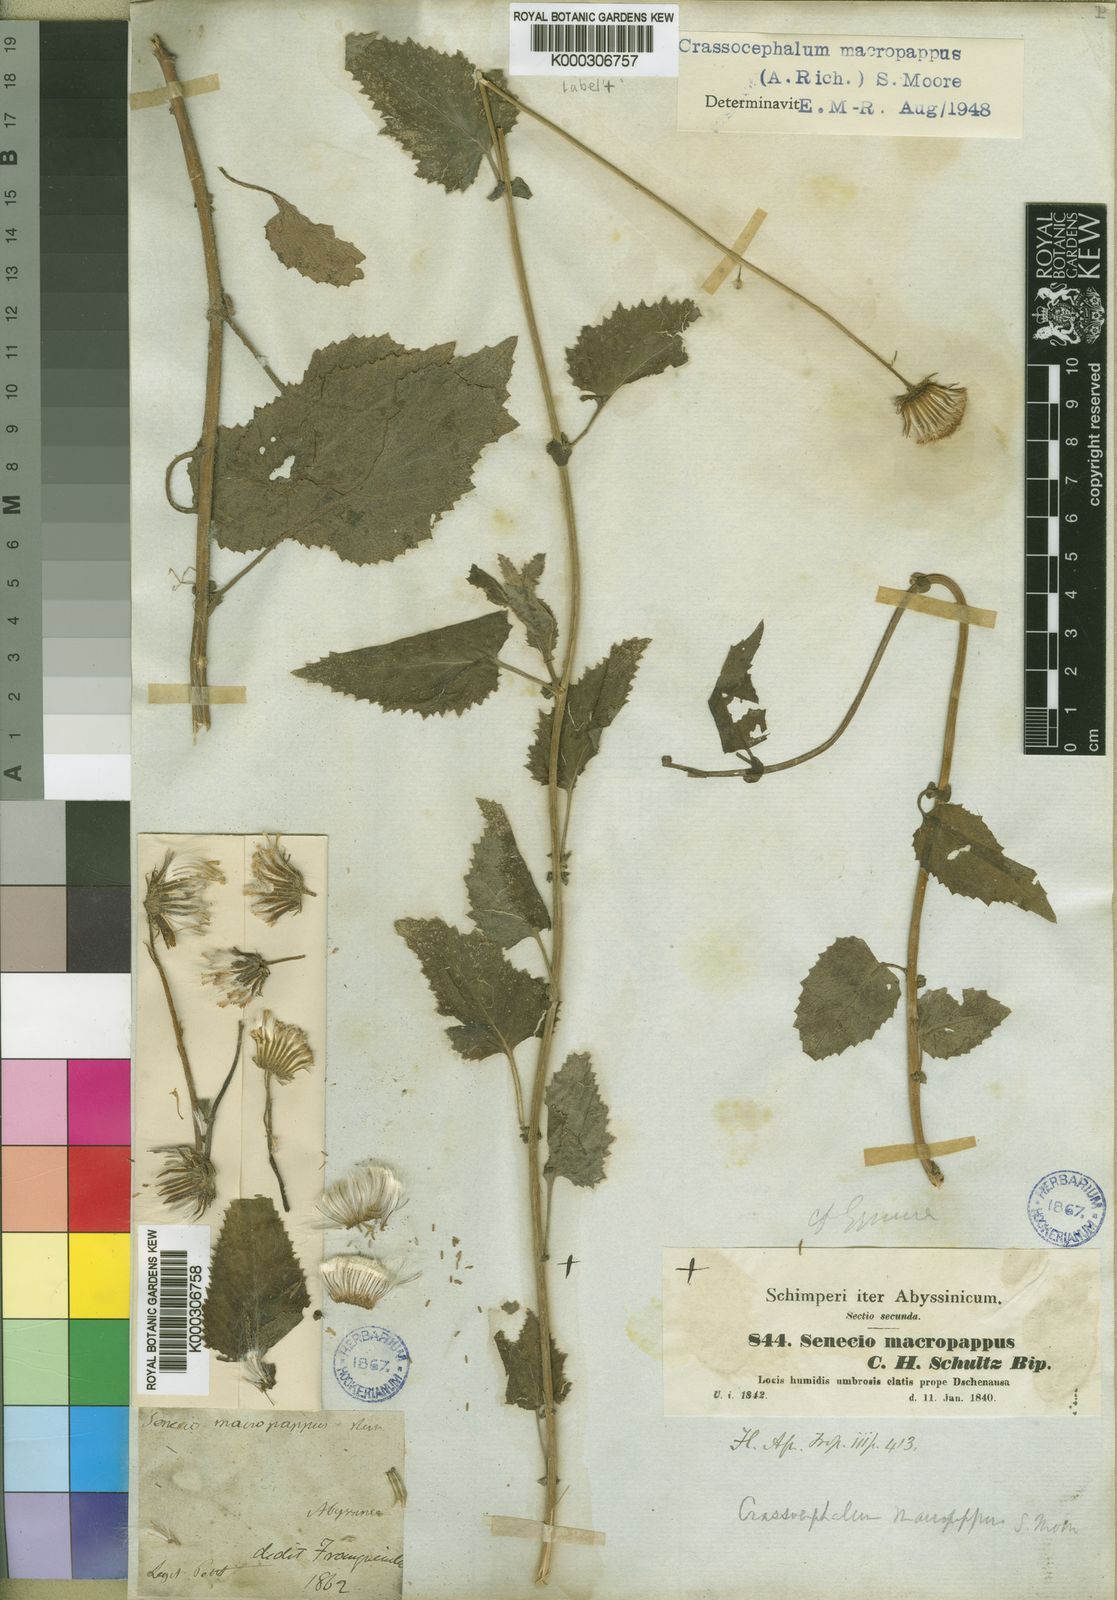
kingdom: Plantae
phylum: Tracheophyta
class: Magnoliopsida
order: Asterales
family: Asteraceae
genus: Crassocephalum
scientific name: Crassocephalum macropappus
